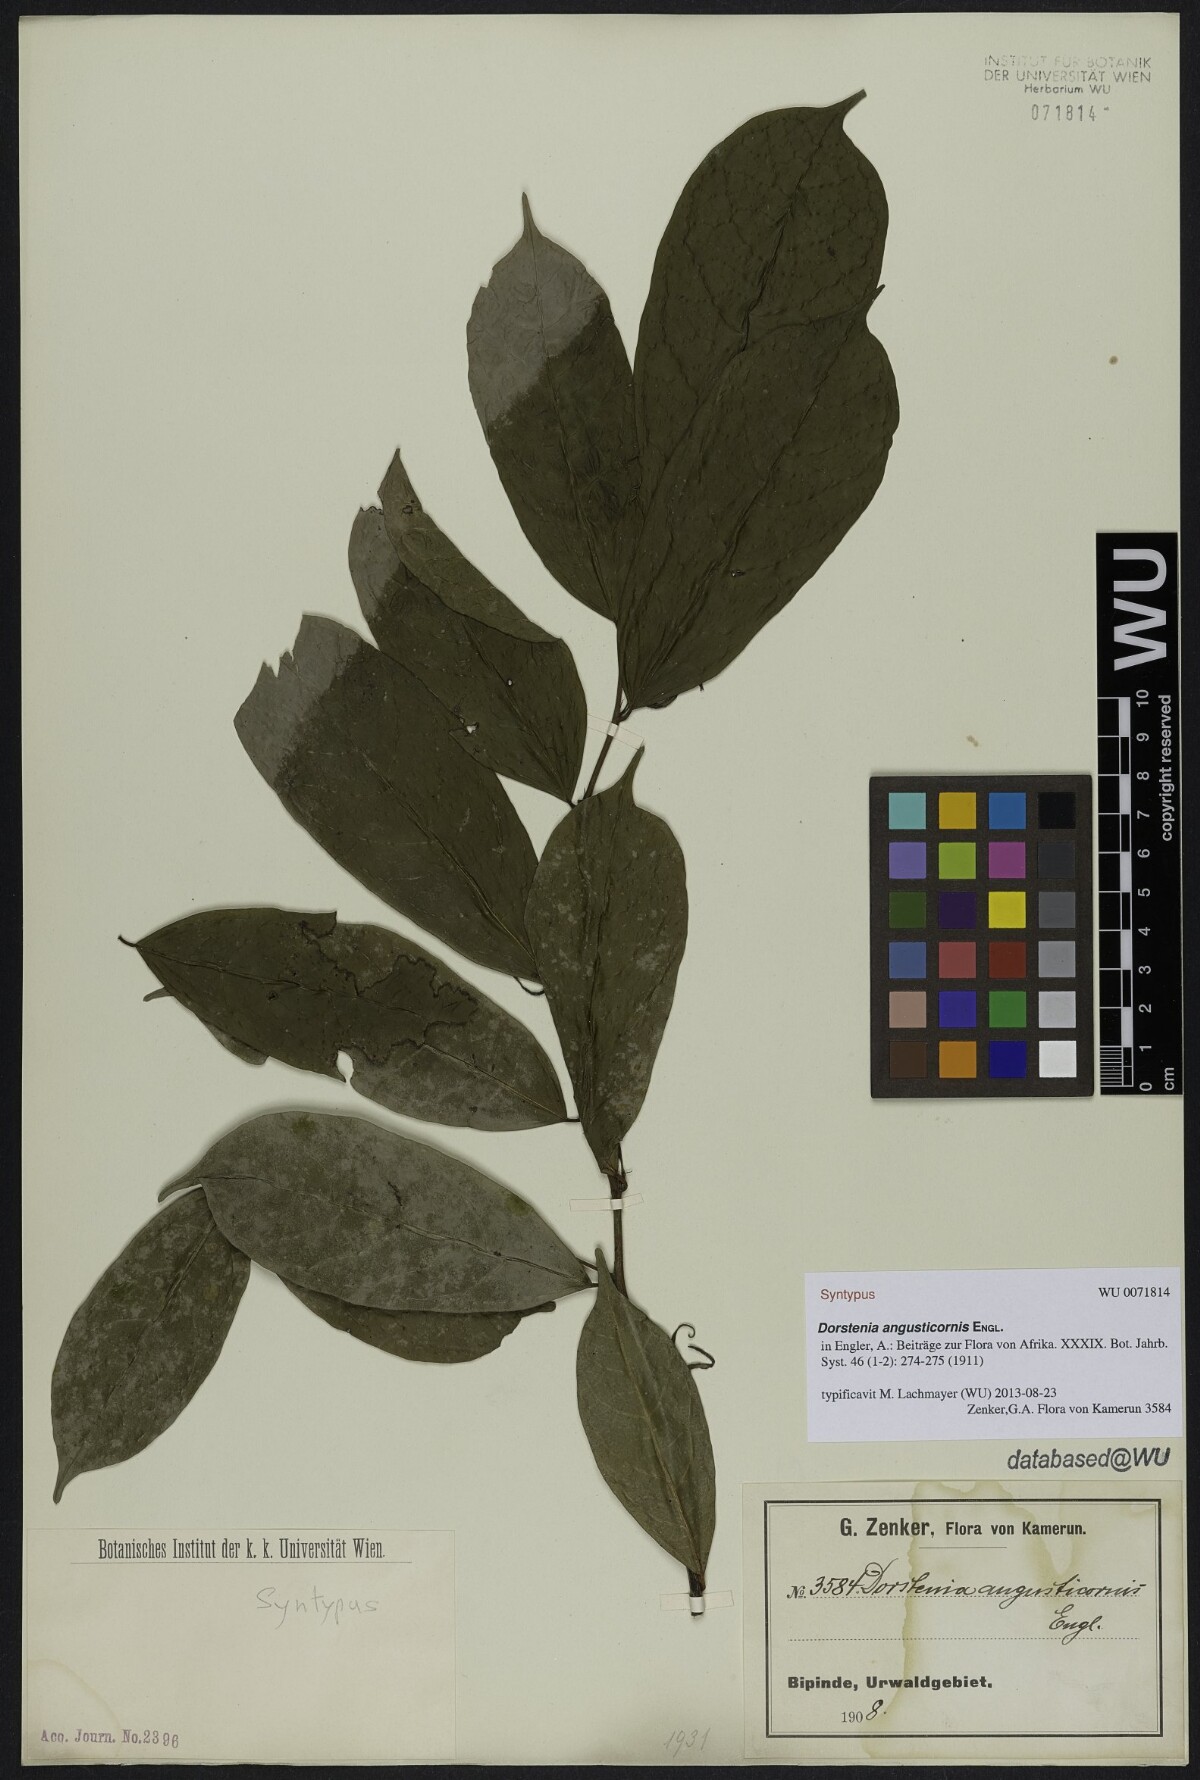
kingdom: Plantae
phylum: Tracheophyta
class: Magnoliopsida
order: Rosales
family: Moraceae
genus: Hijmania
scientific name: Hijmania angusticornis
